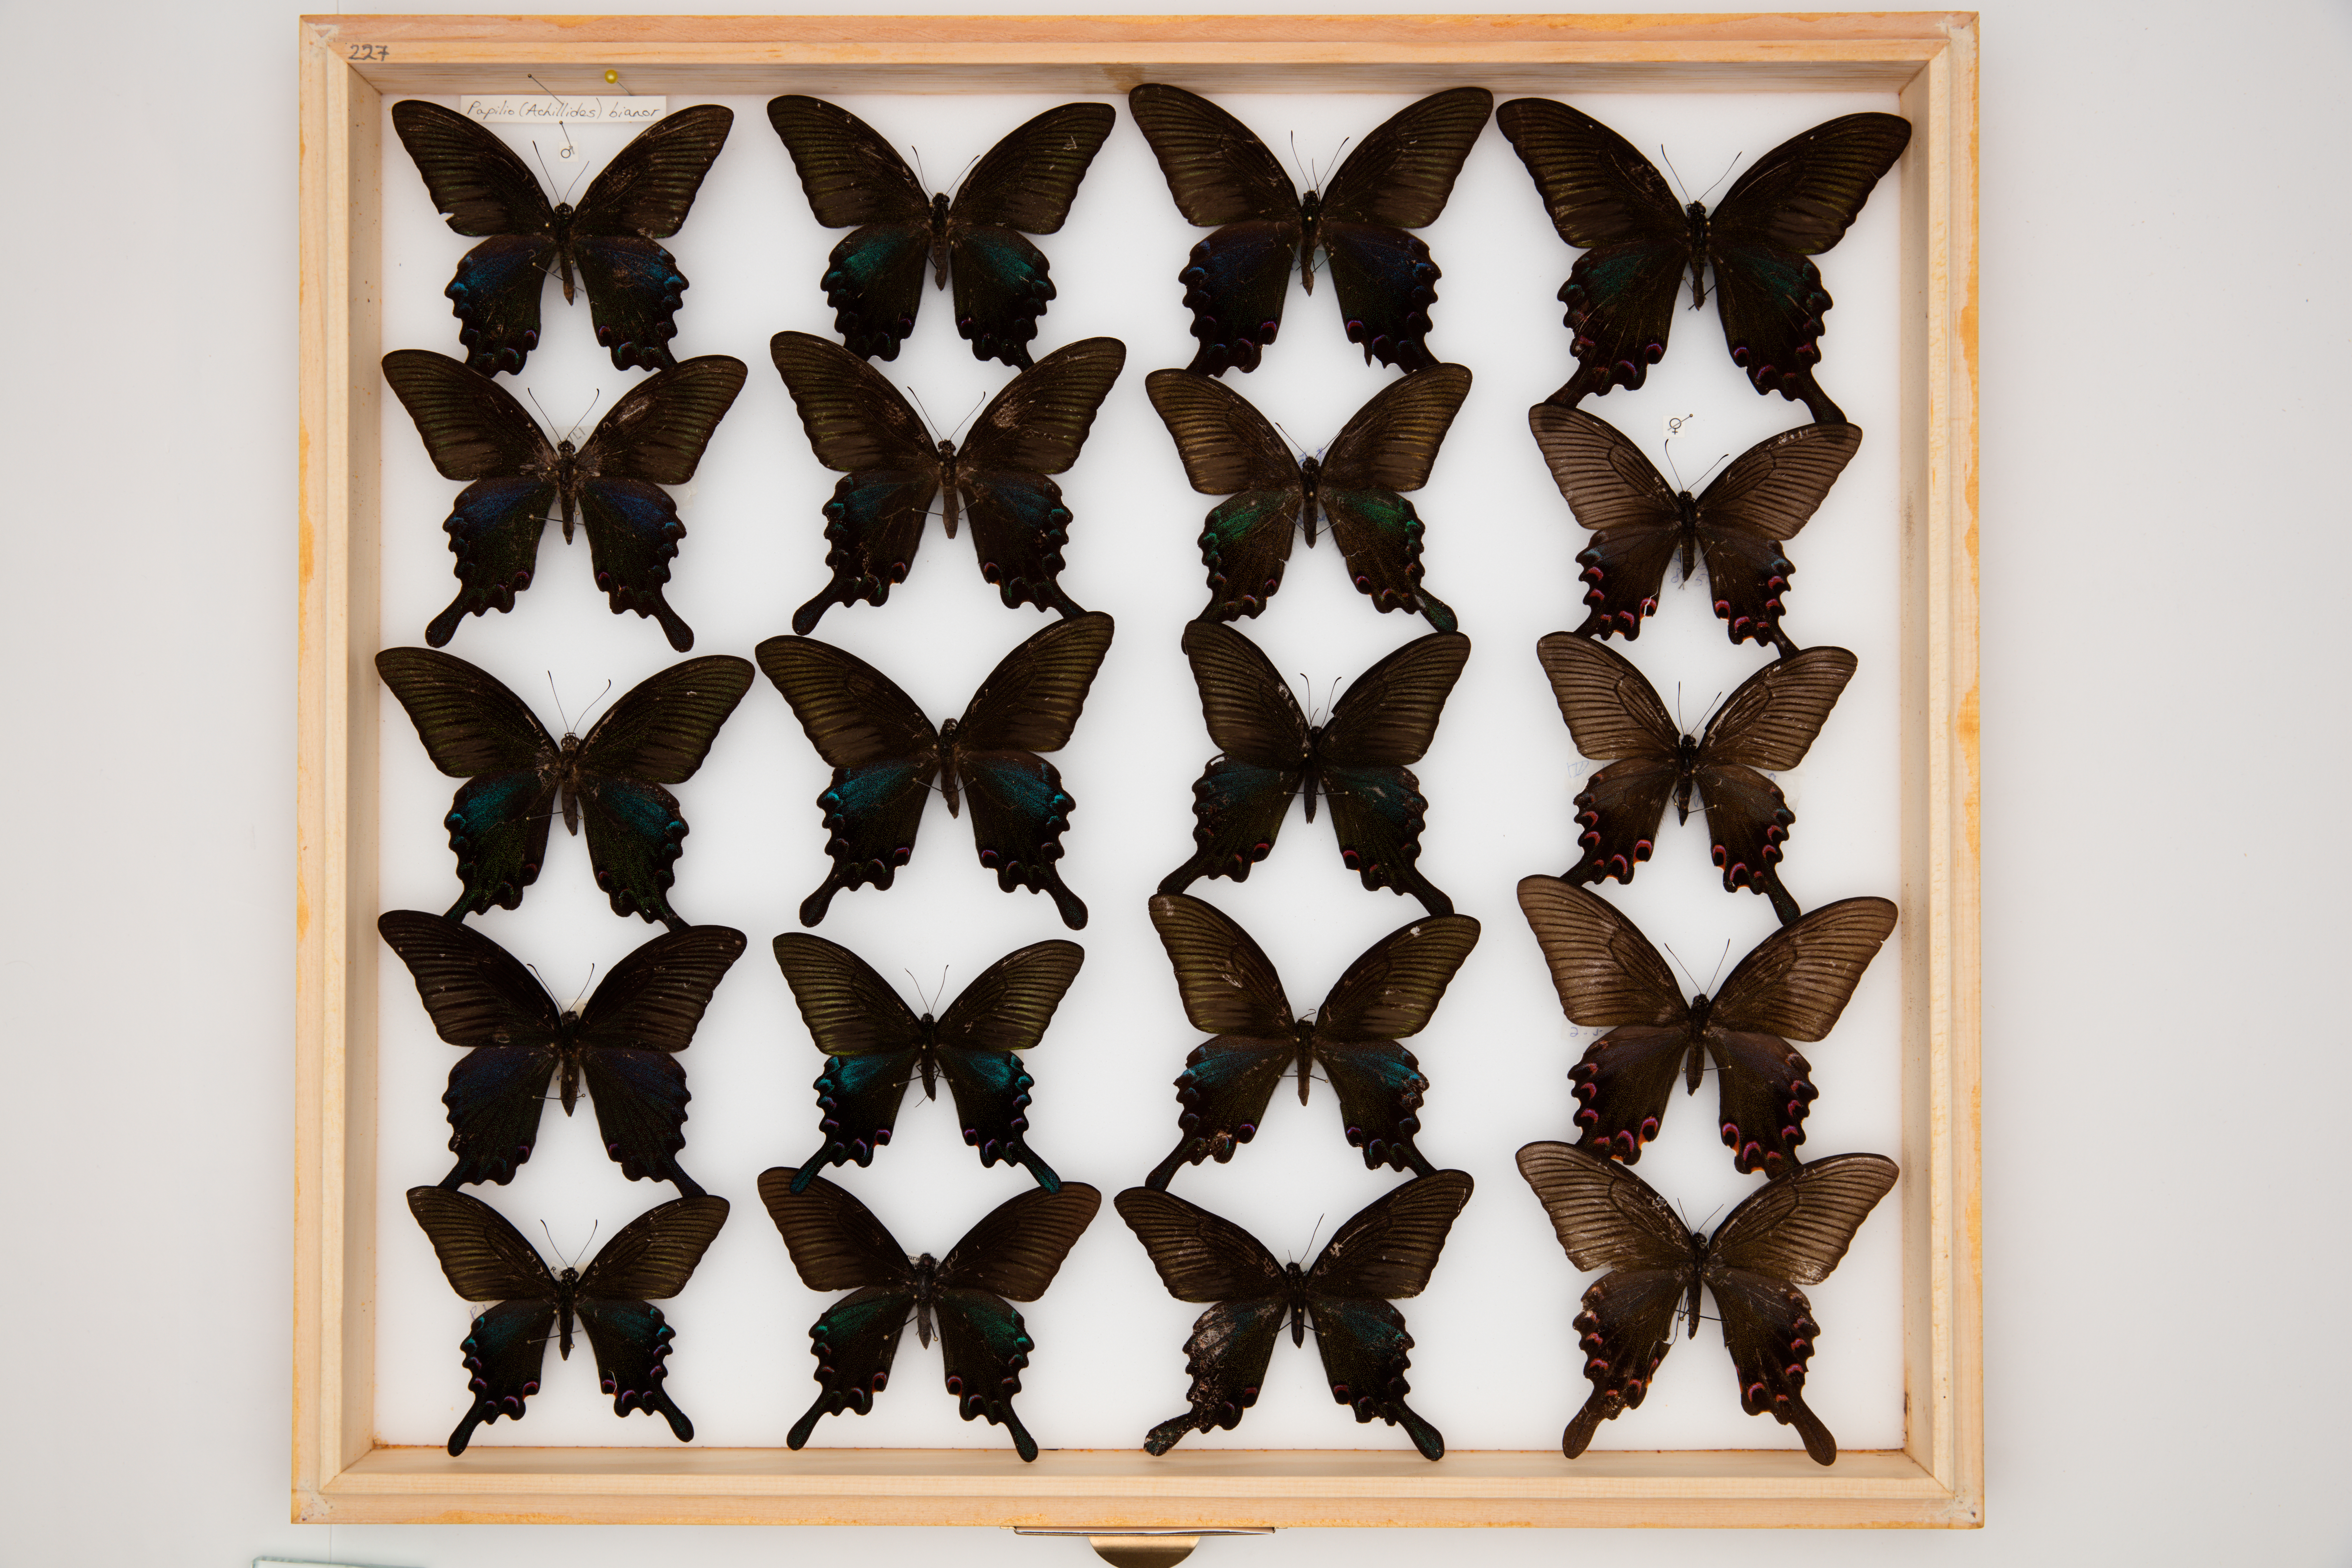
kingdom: Animalia
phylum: Arthropoda
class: Insecta
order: Lepidoptera
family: Papilionidae
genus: Papilio
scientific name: Papilio bianor
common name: Common peacock
